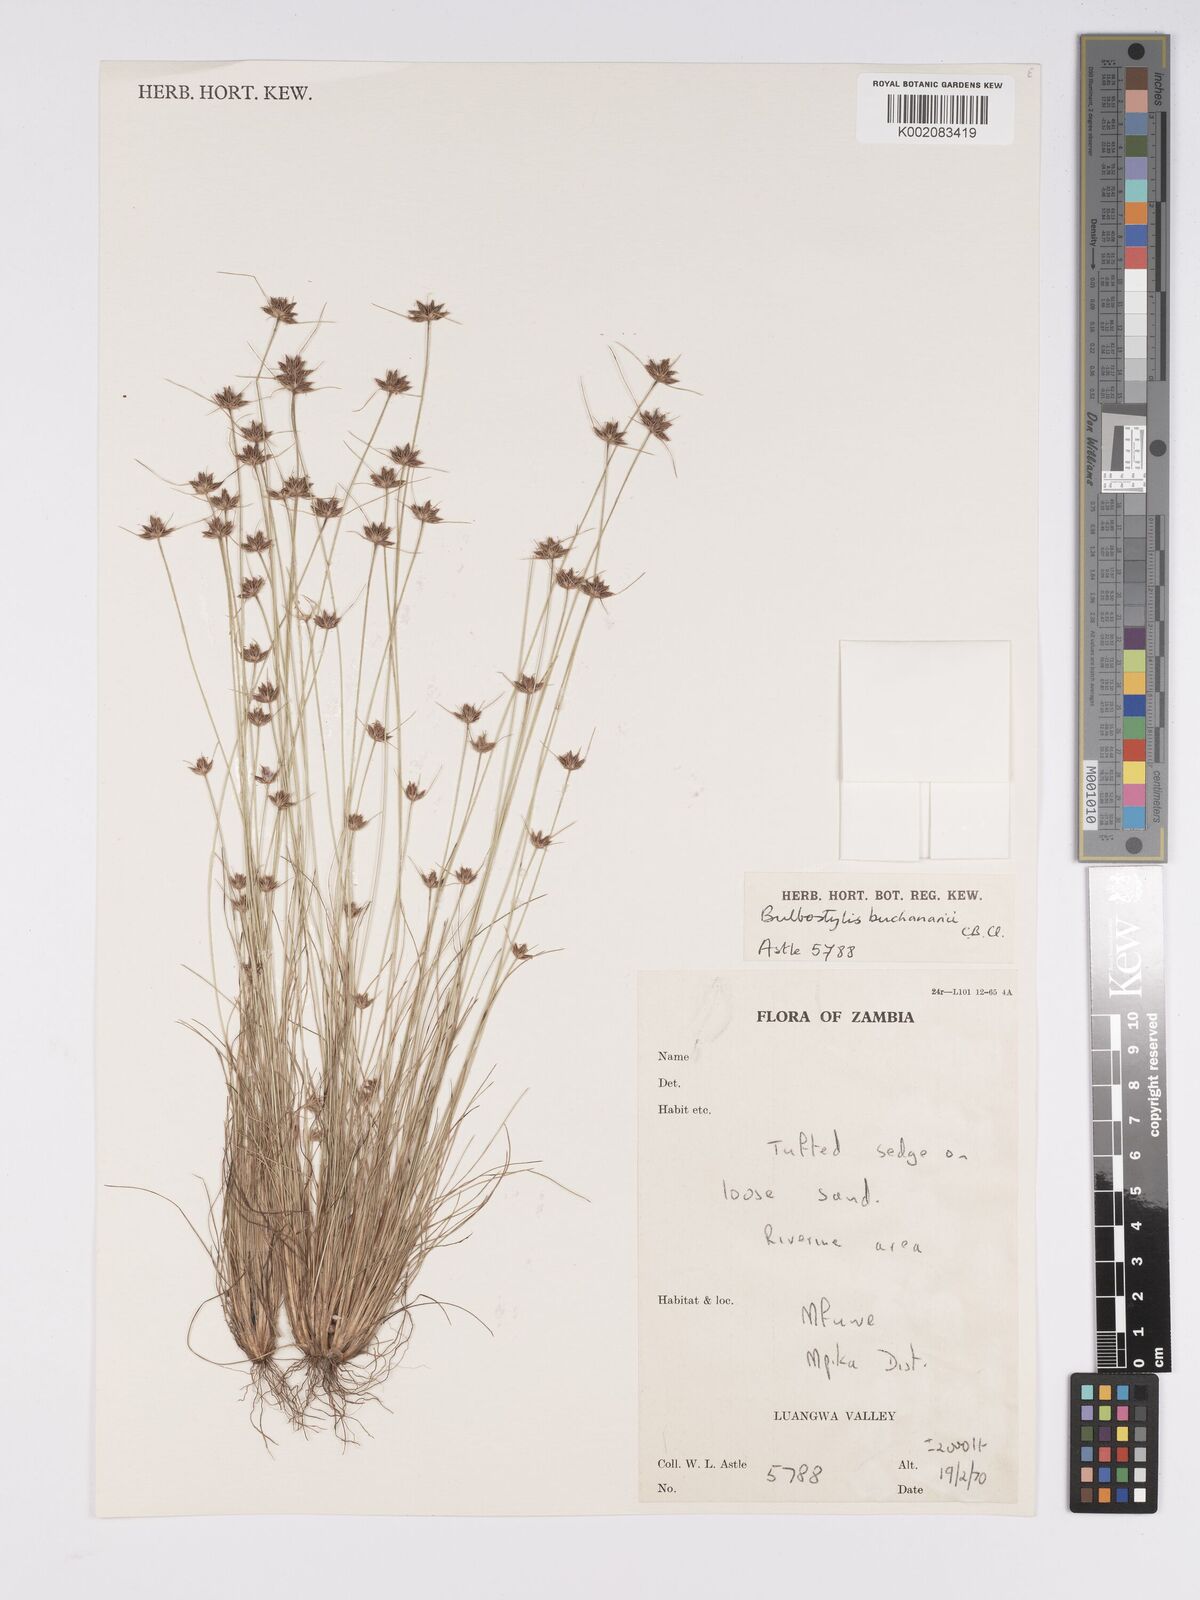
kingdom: Plantae
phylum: Tracheophyta
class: Liliopsida
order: Poales
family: Cyperaceae
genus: Bulbostylis
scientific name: Bulbostylis buchananii
